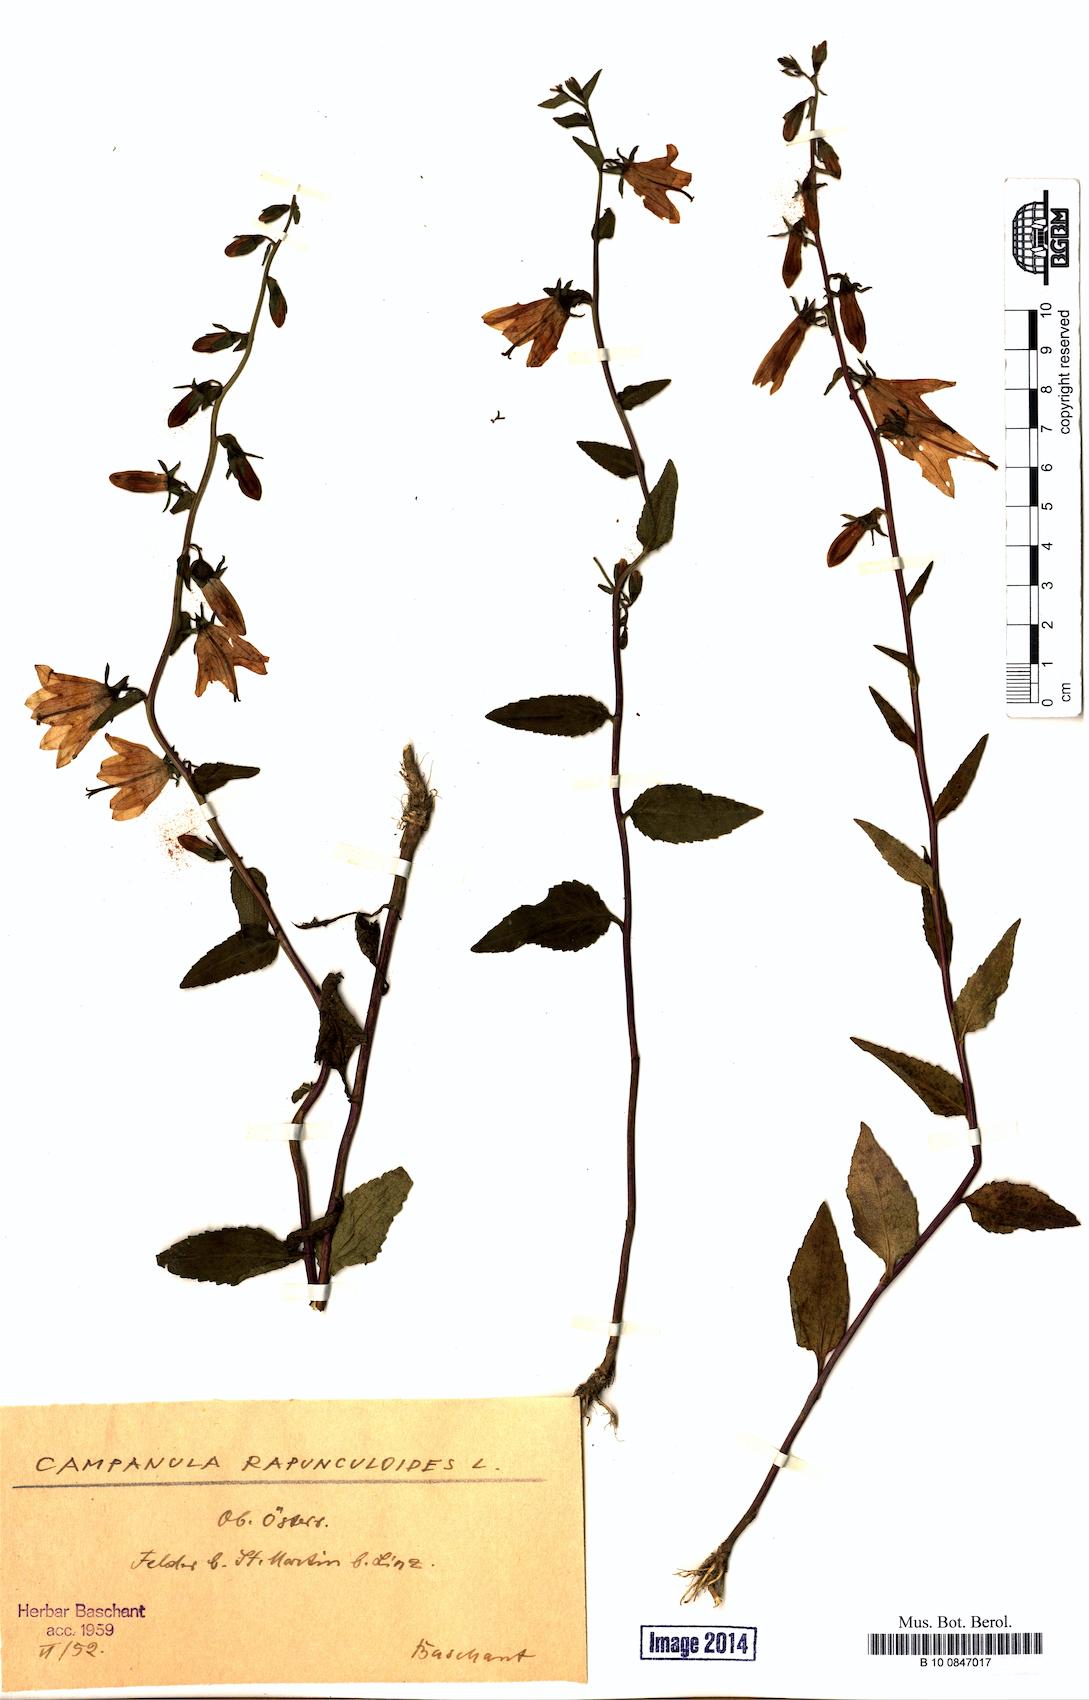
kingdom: Plantae
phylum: Tracheophyta
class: Magnoliopsida
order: Asterales
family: Campanulaceae
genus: Campanula
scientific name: Campanula rapunculoides
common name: Creeping bellflower
